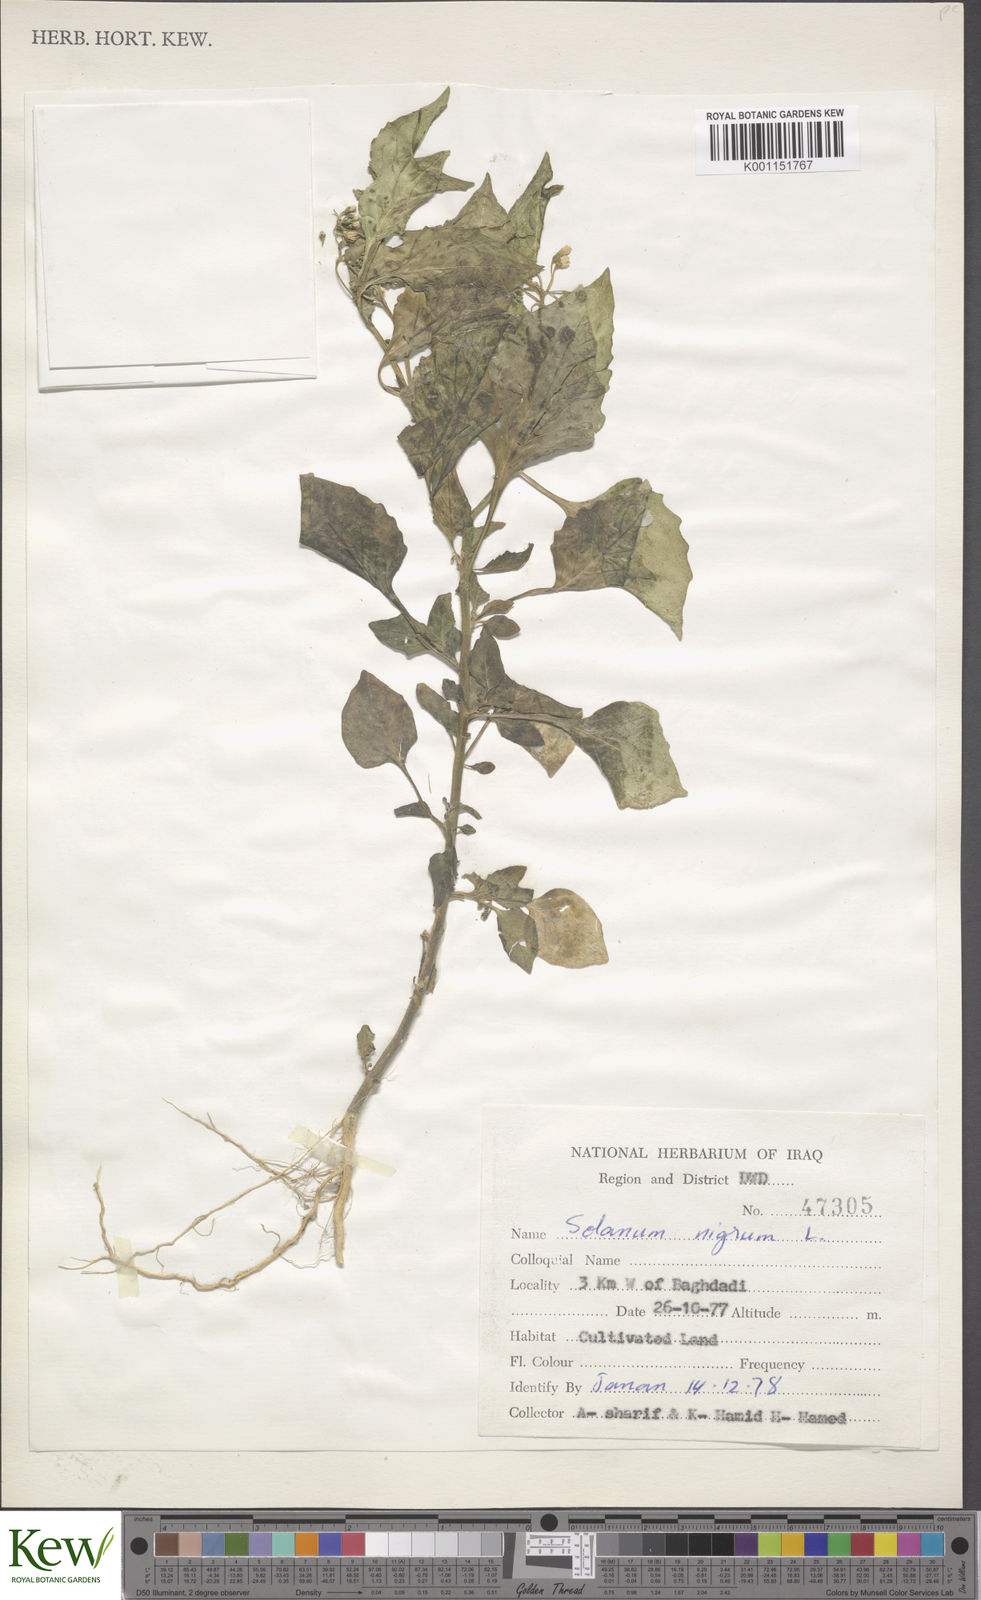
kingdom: Plantae
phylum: Tracheophyta
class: Magnoliopsida
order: Solanales
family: Solanaceae
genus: Solanum
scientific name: Solanum nigrum
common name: Black nightshade
